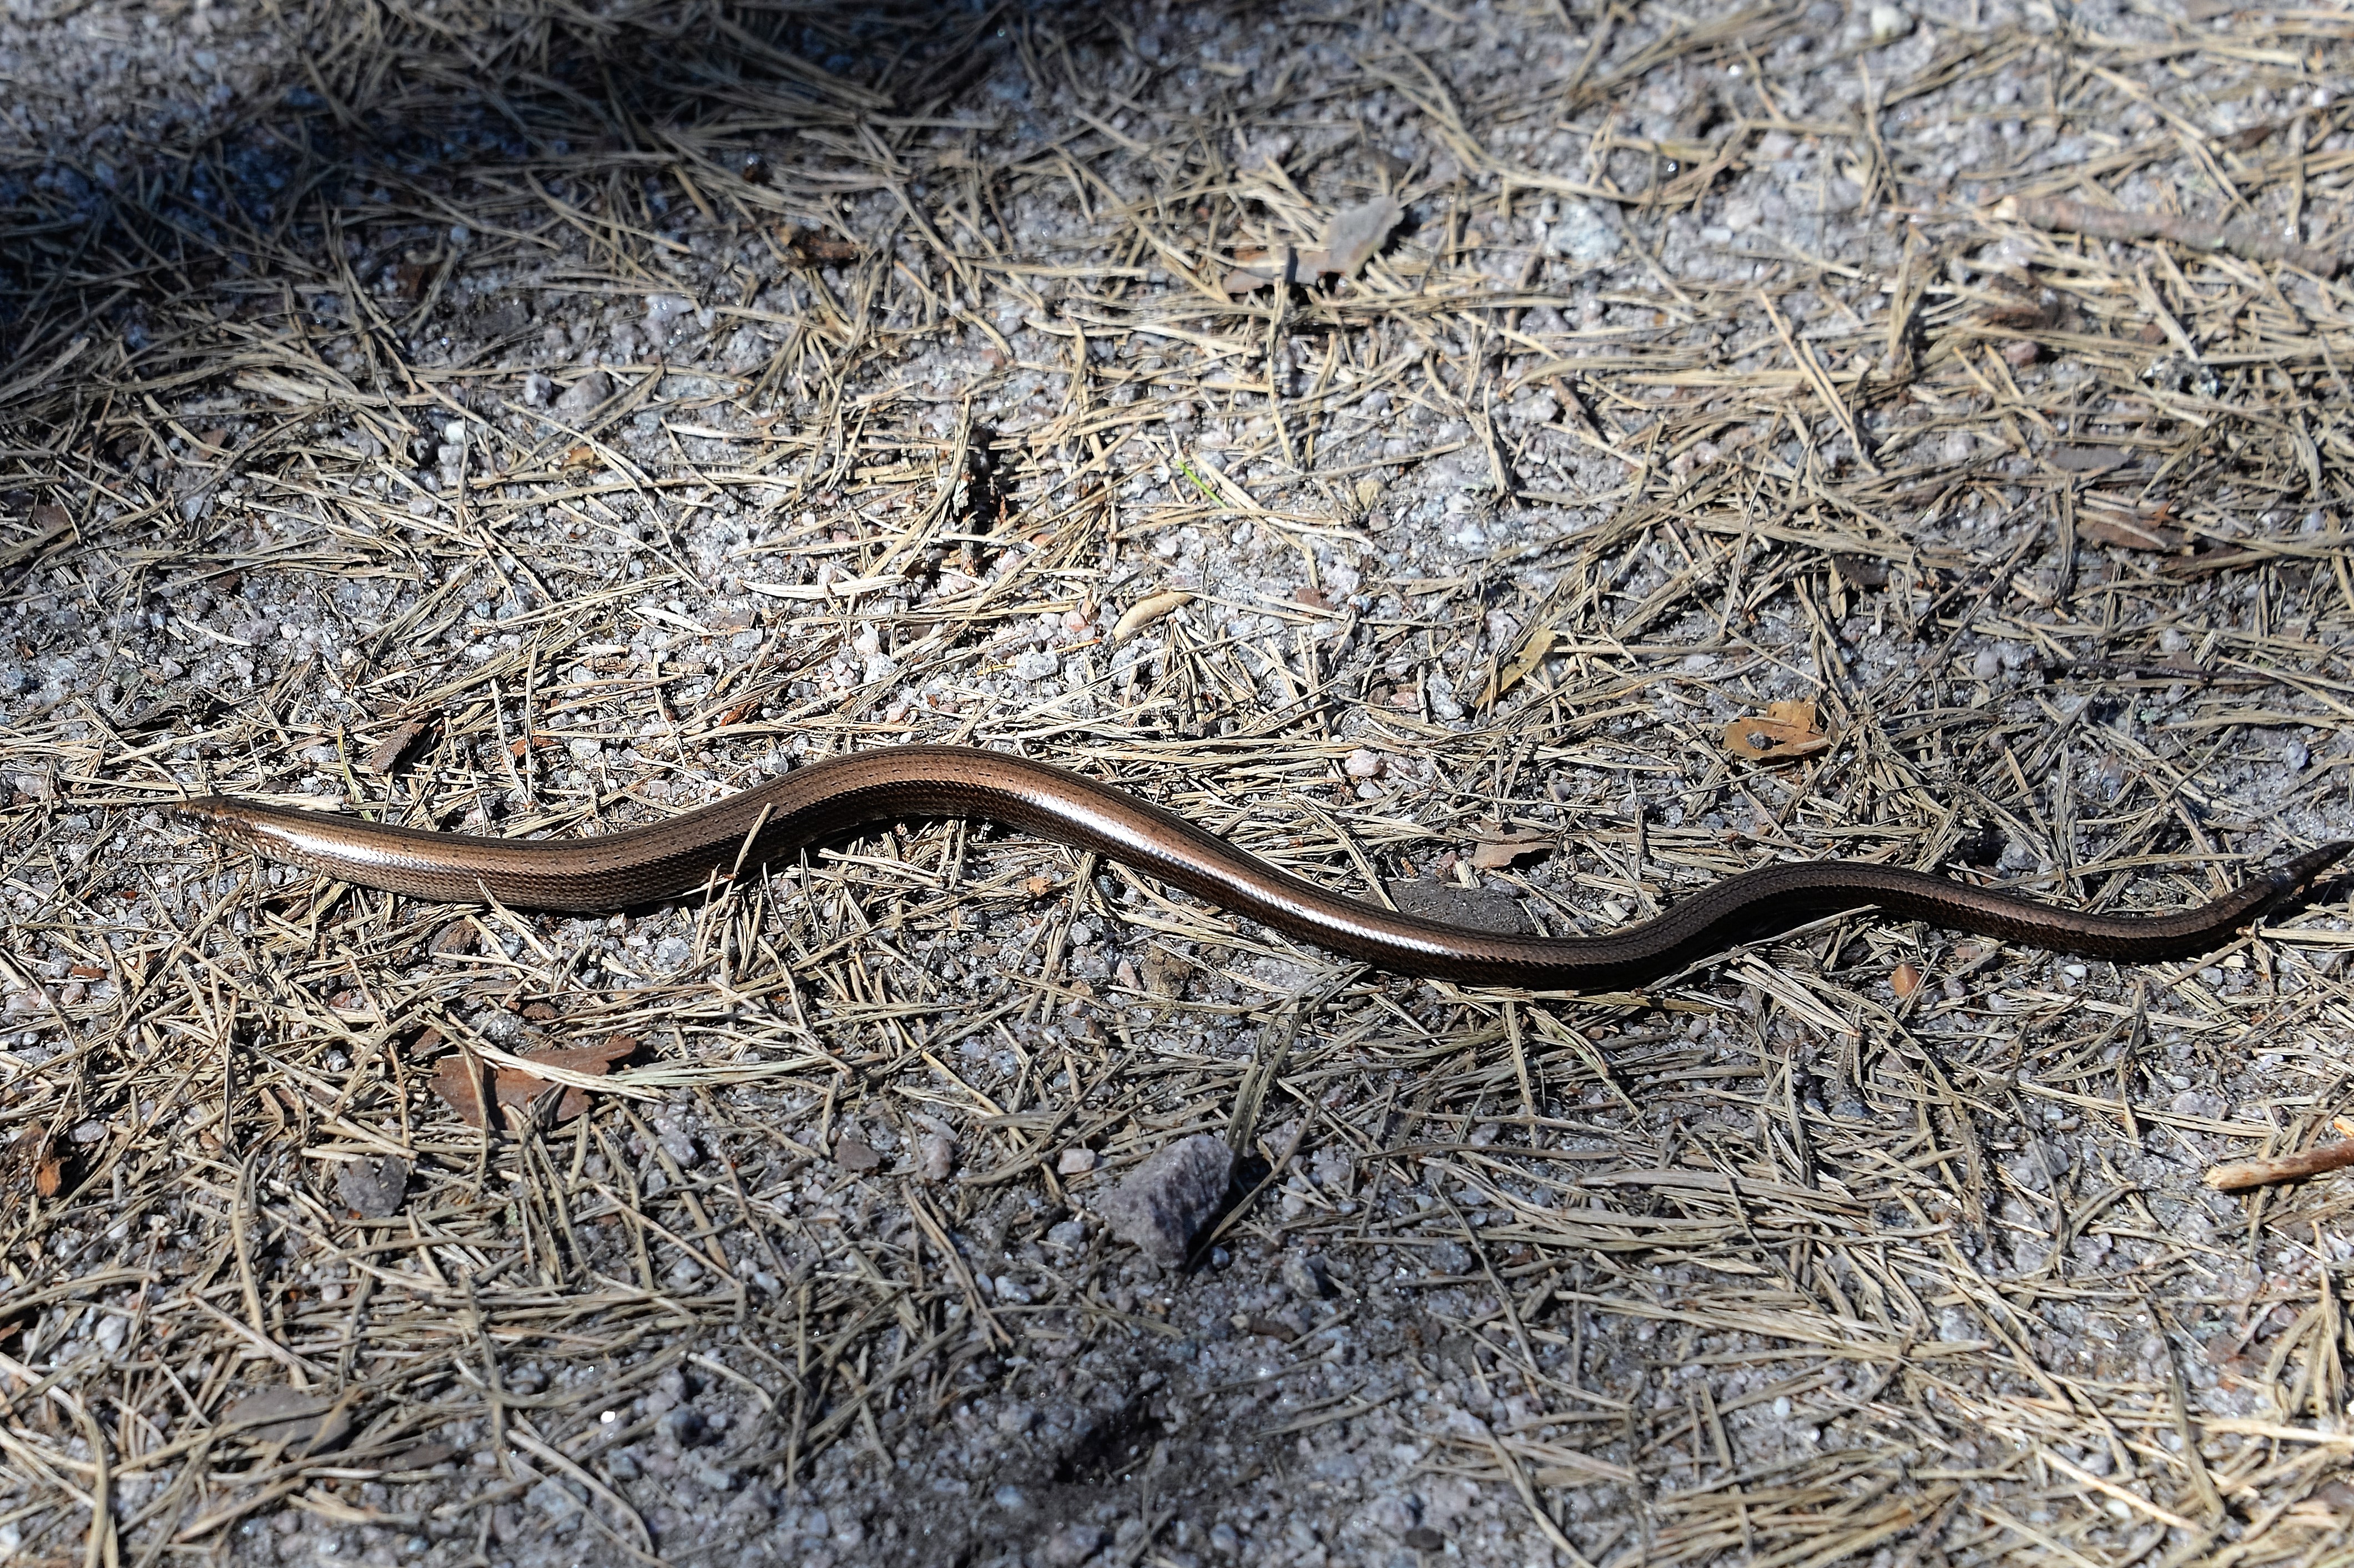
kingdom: Animalia
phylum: Chordata
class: Squamata
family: Anguidae
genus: Anguis
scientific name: Anguis colchica
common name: Slow worm
